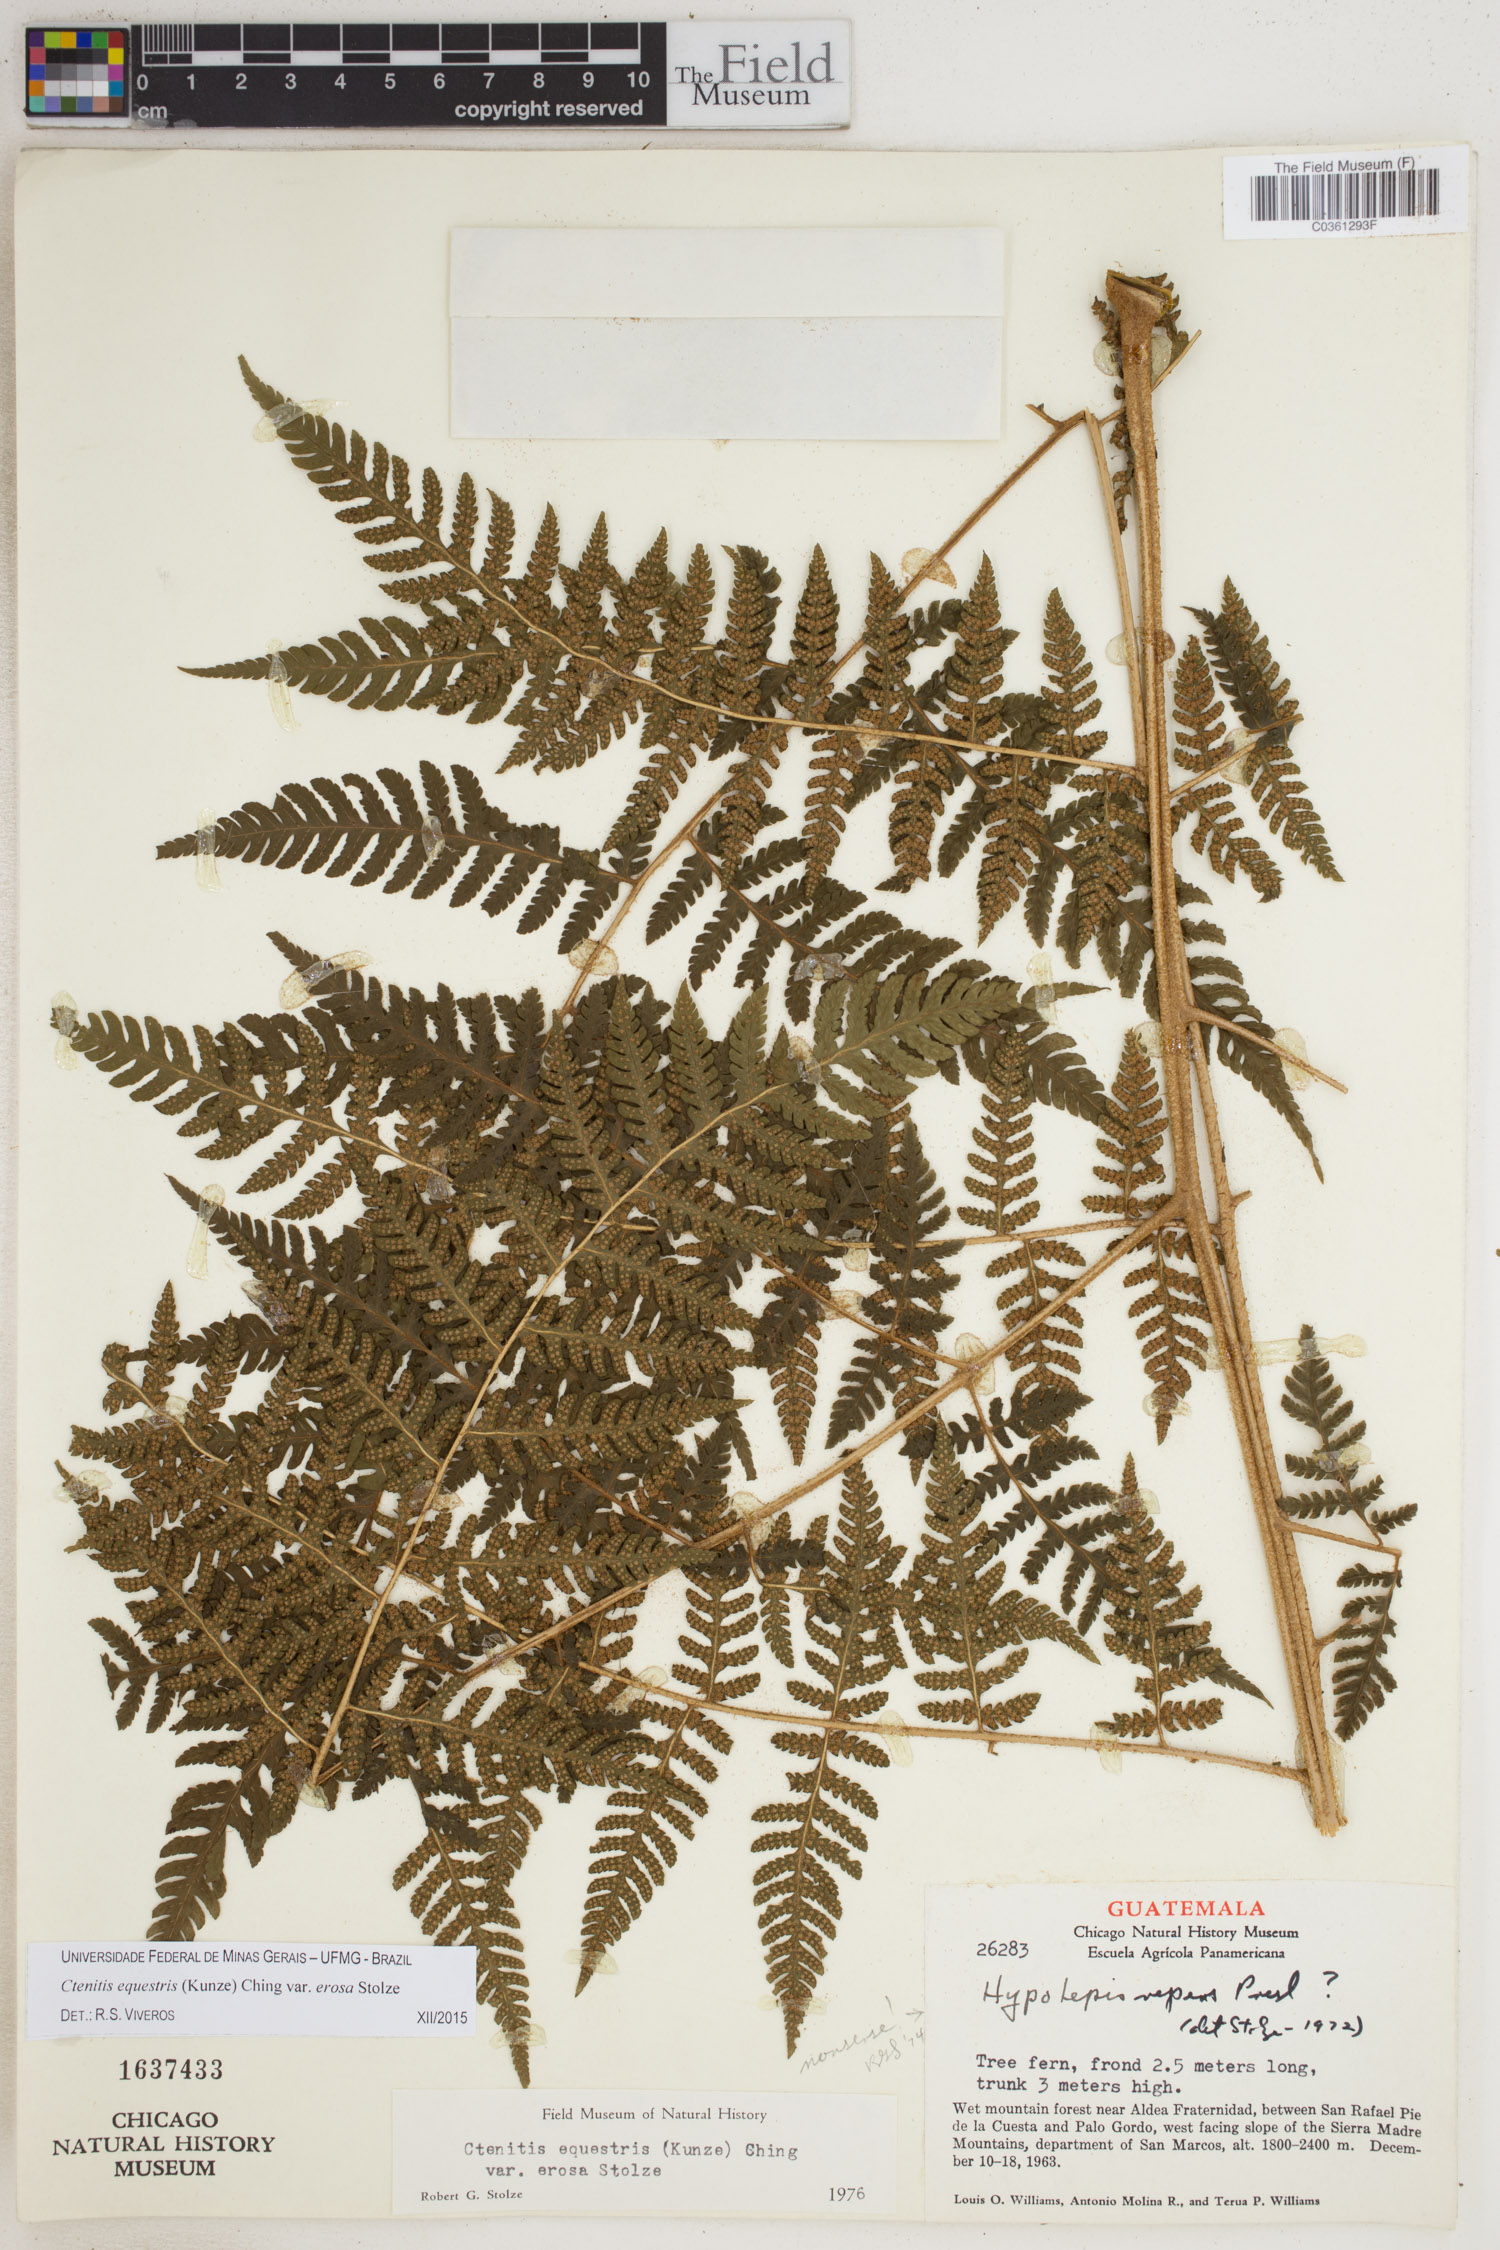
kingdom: Plantae
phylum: Tracheophyta
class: Polypodiopsida
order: Polypodiales
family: Dryopteridaceae
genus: Ctenitis
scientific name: Ctenitis equestris
